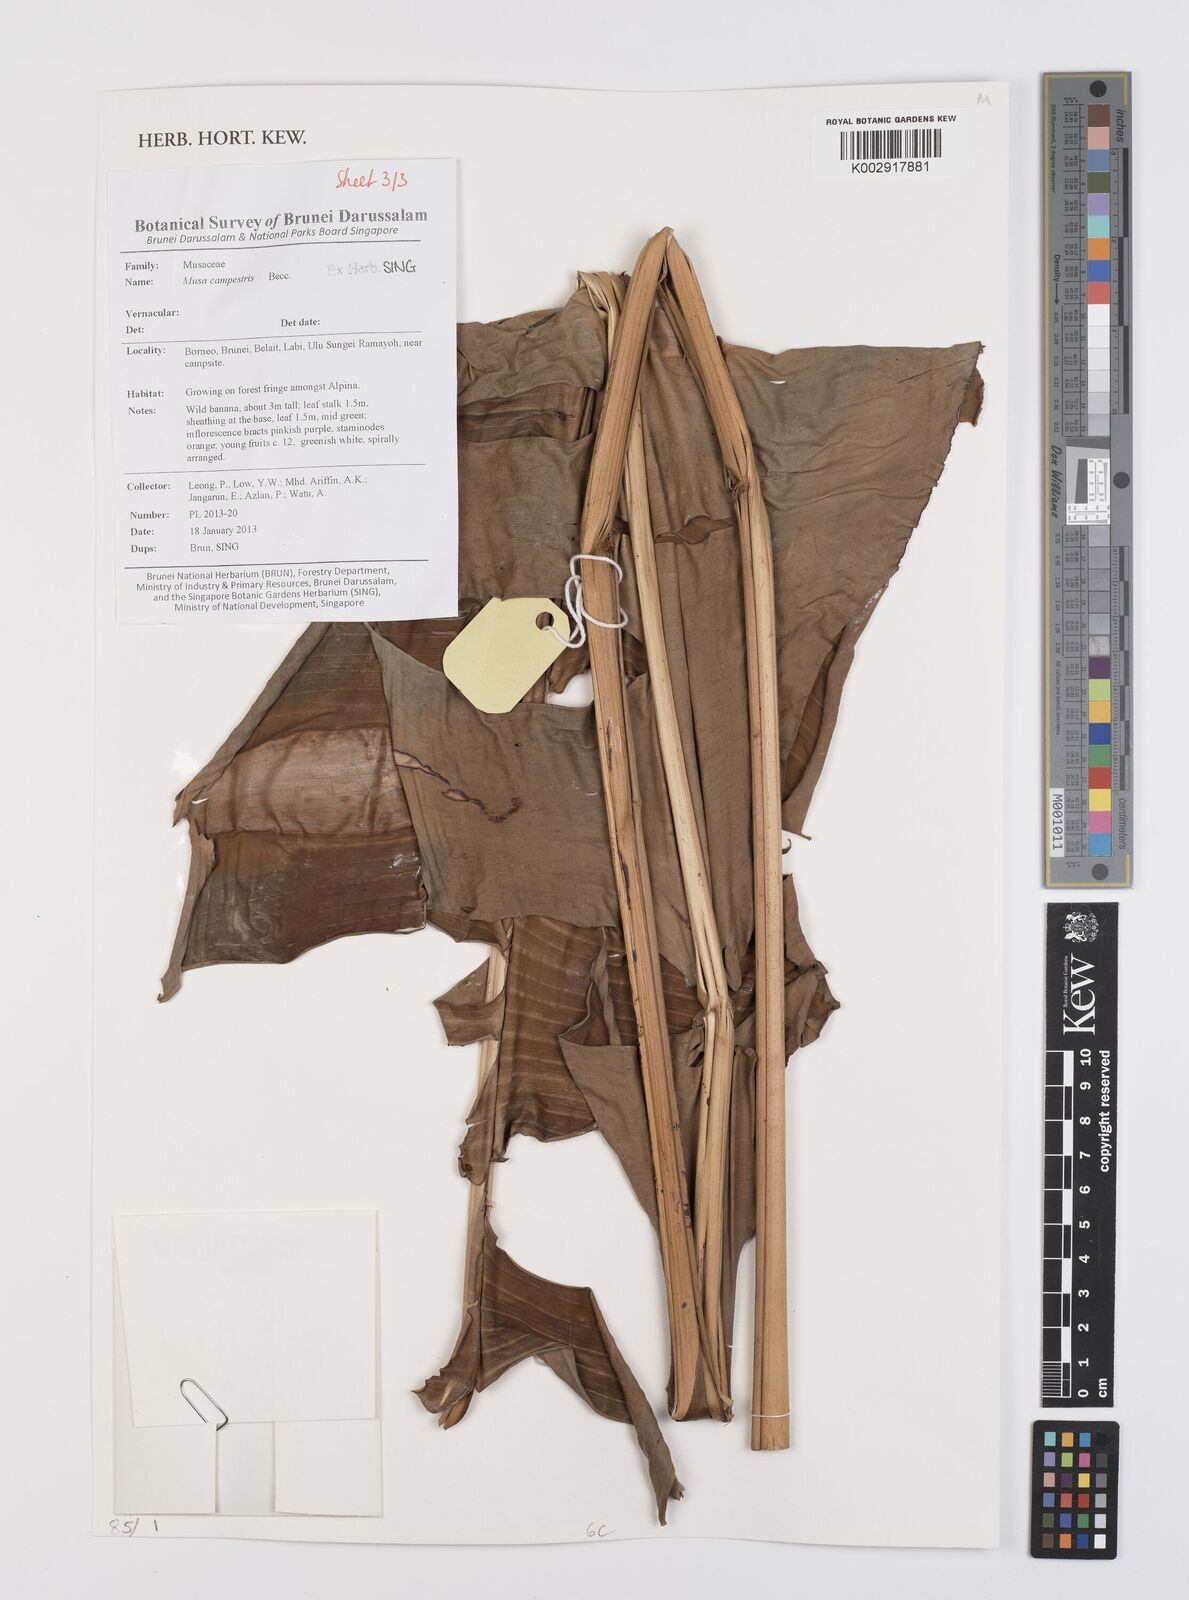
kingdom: Plantae
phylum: Tracheophyta
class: Liliopsida
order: Zingiberales
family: Musaceae
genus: Musa
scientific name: Musa campestris
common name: Swamp banana
